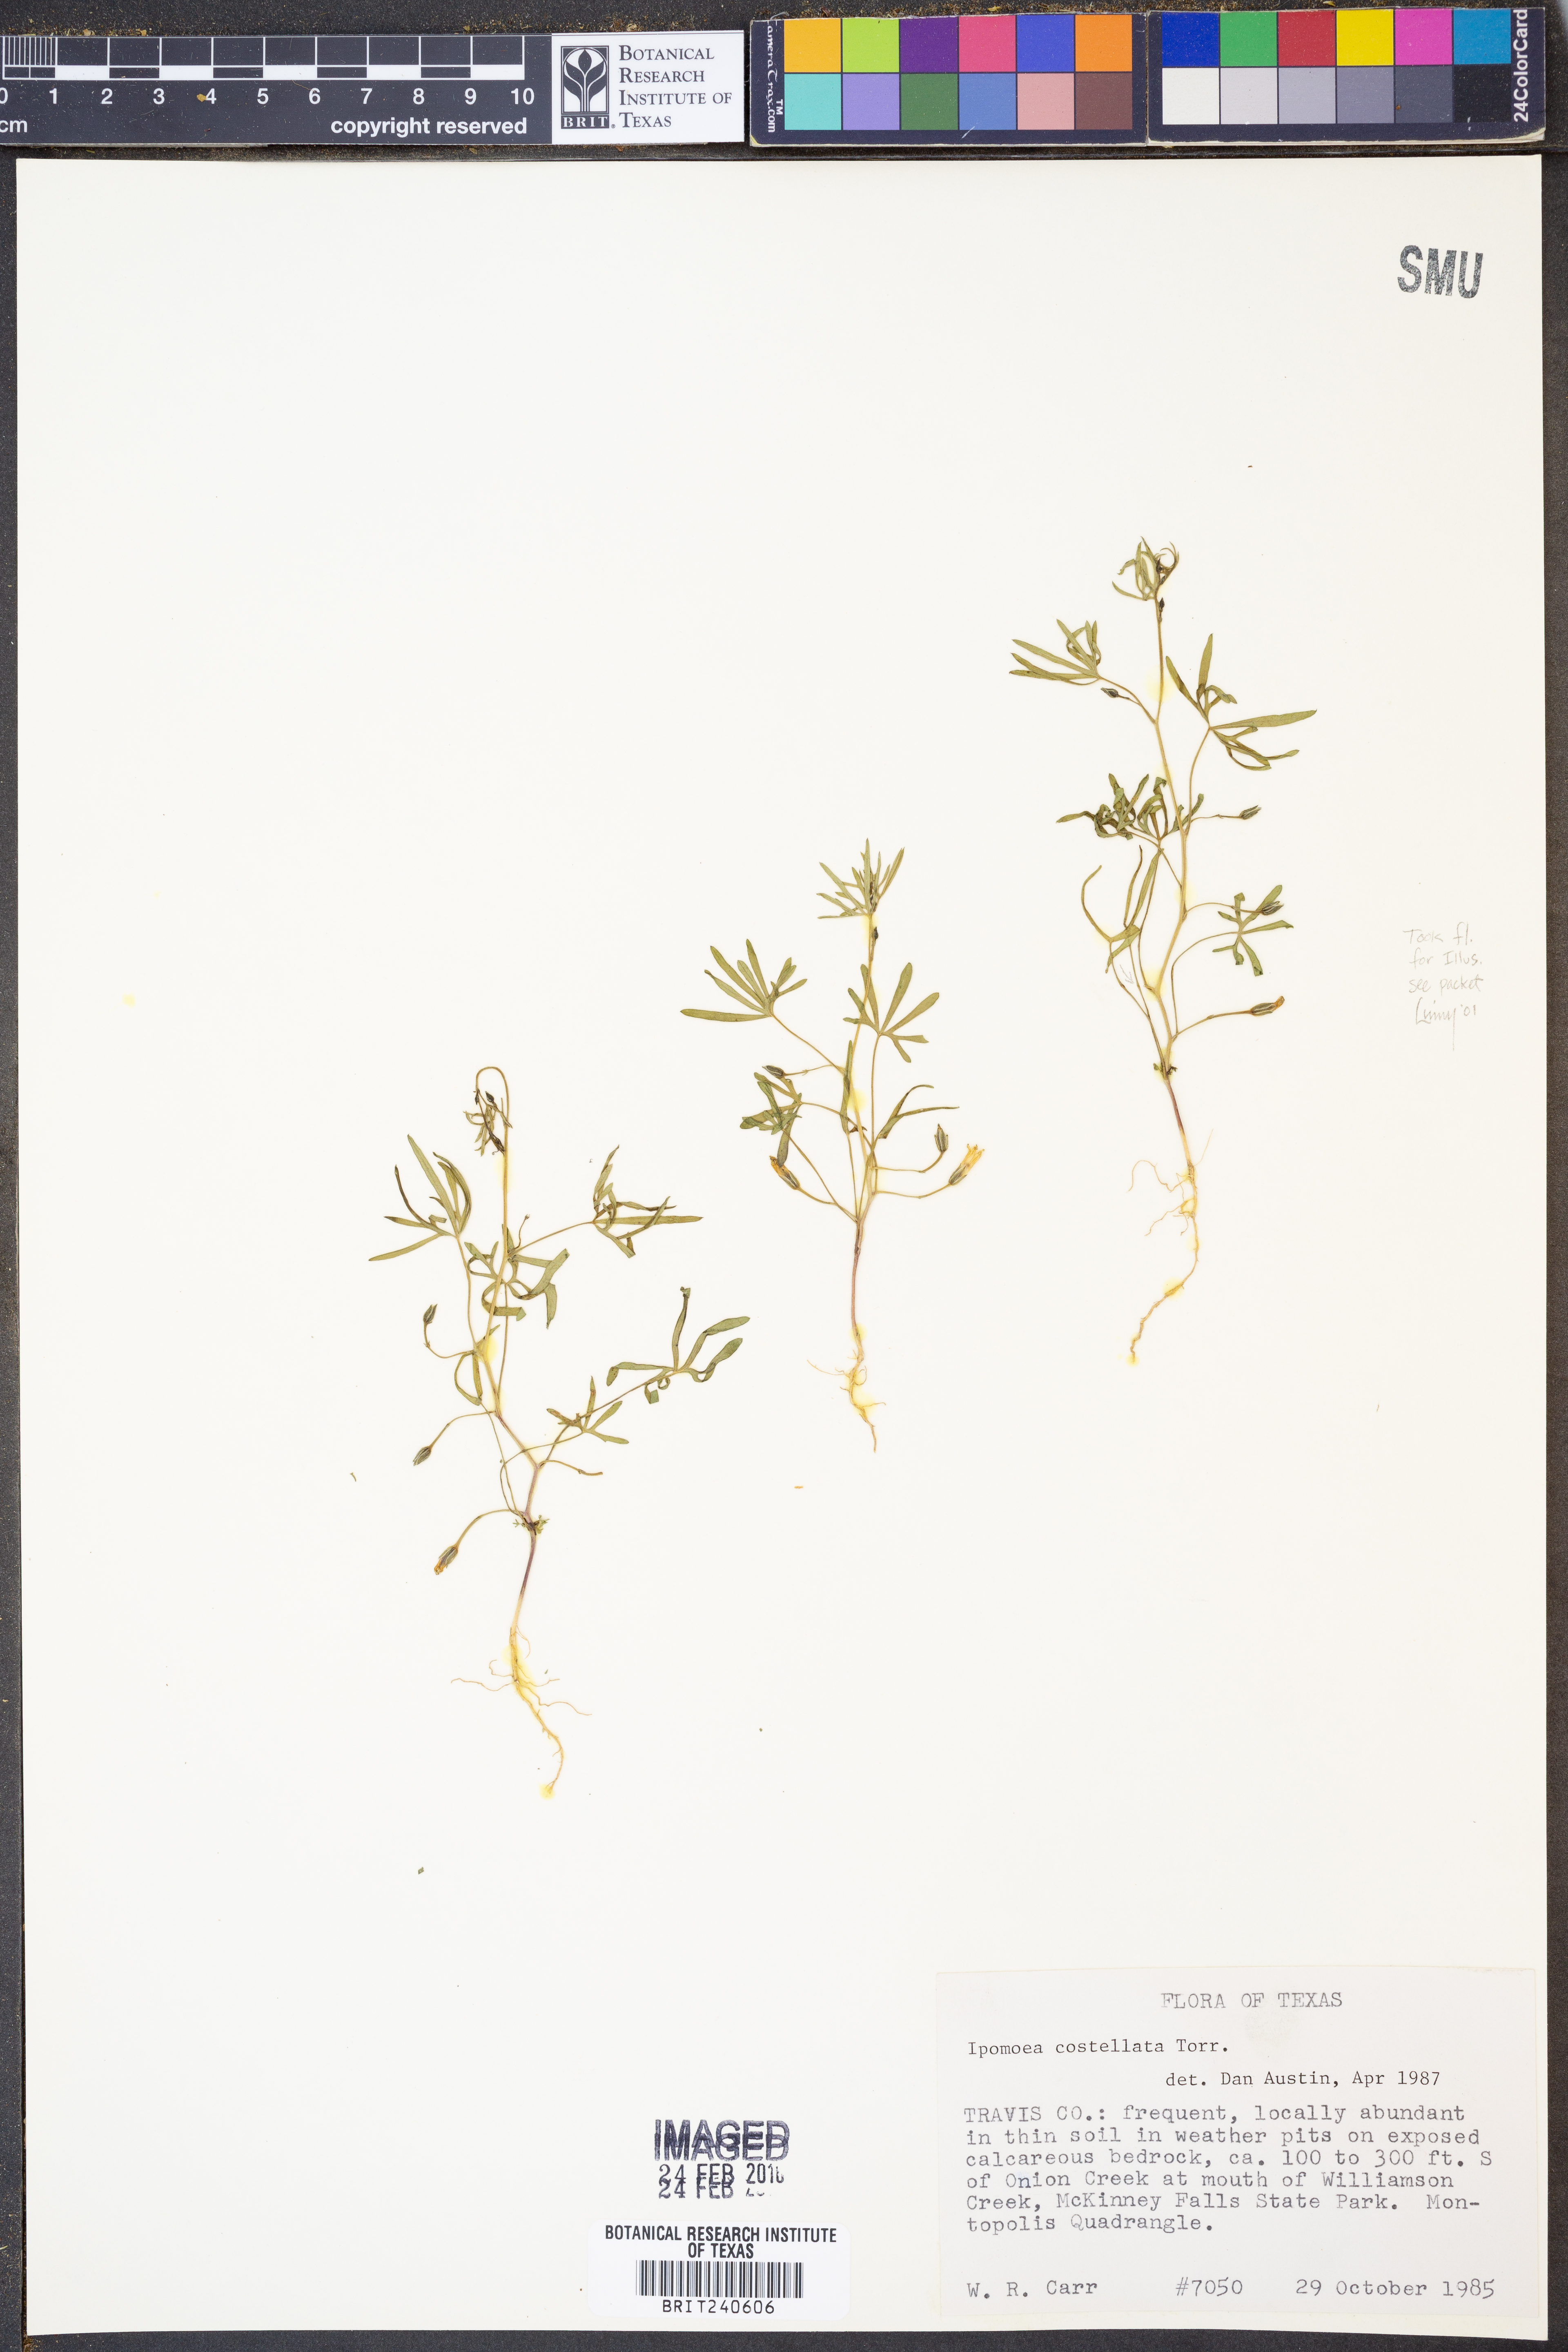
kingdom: Plantae
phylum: Tracheophyta
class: Magnoliopsida
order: Solanales
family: Convolvulaceae
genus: Ipomoea
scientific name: Ipomoea costellata
